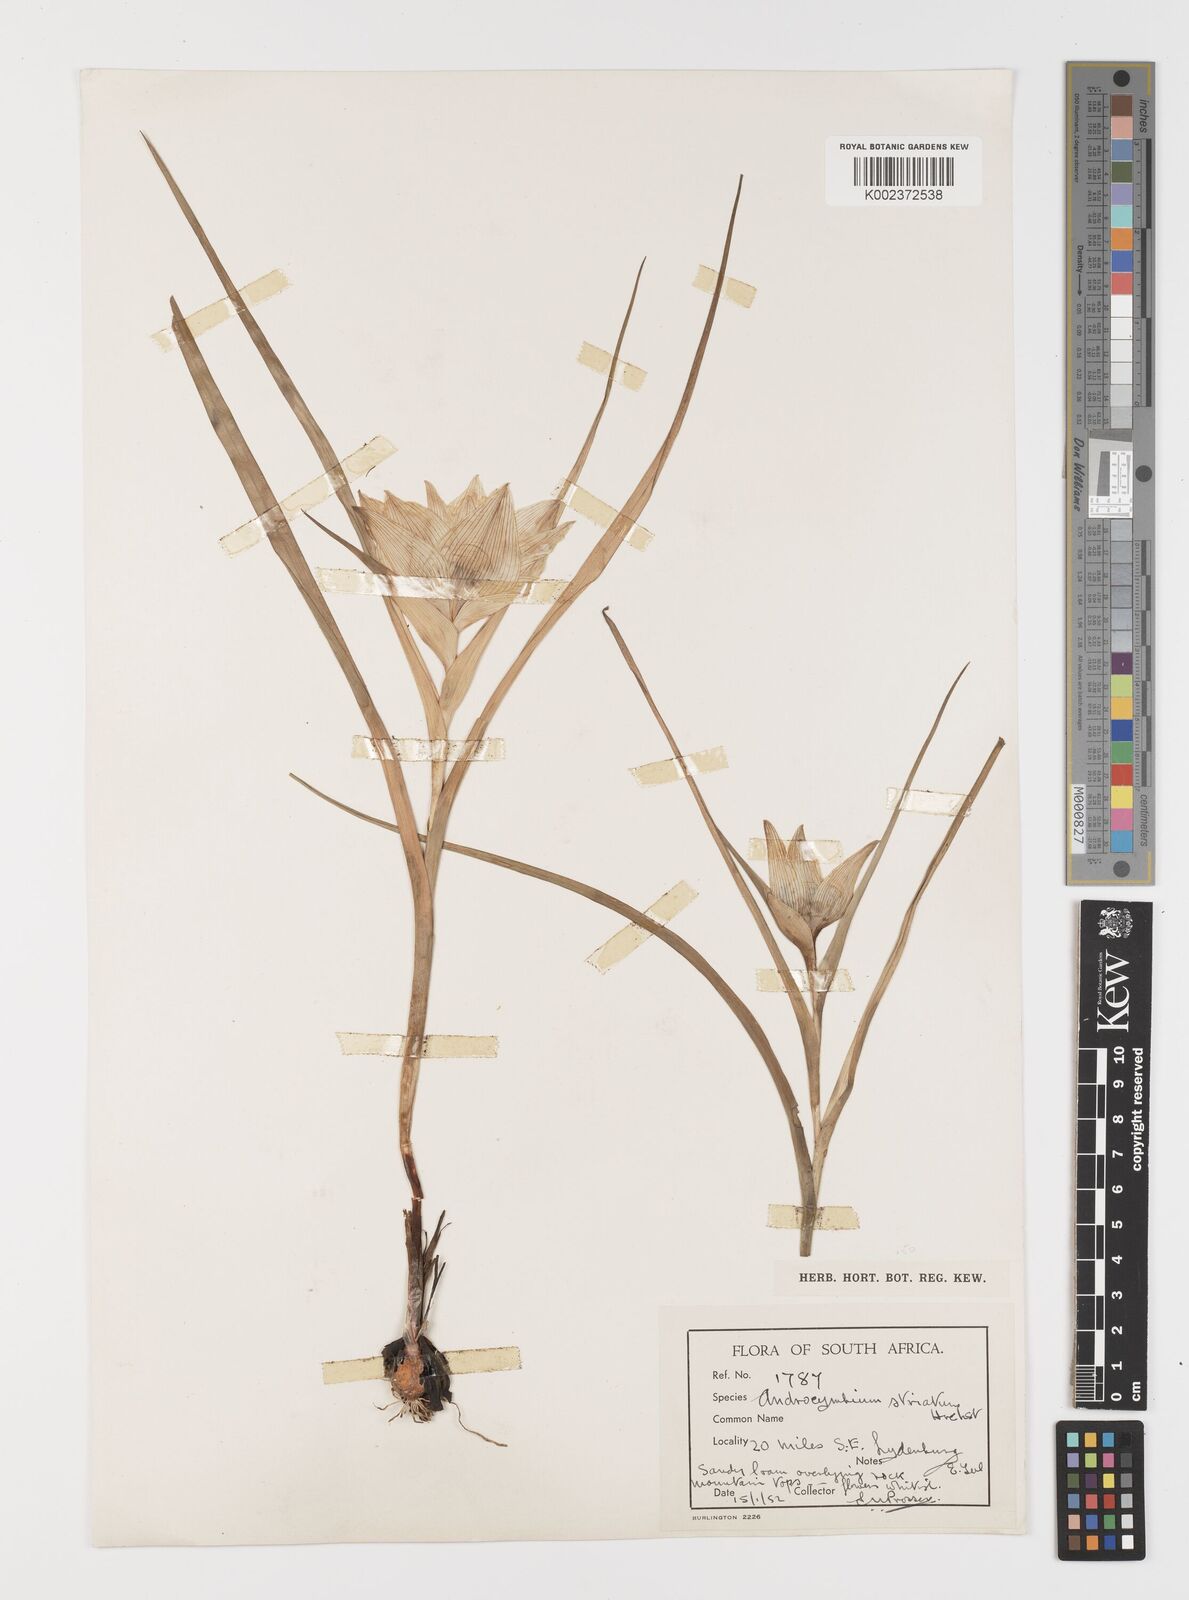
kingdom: Plantae
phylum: Tracheophyta
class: Liliopsida
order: Liliales
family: Colchicaceae
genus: Colchicum
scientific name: Colchicum melanthioides
